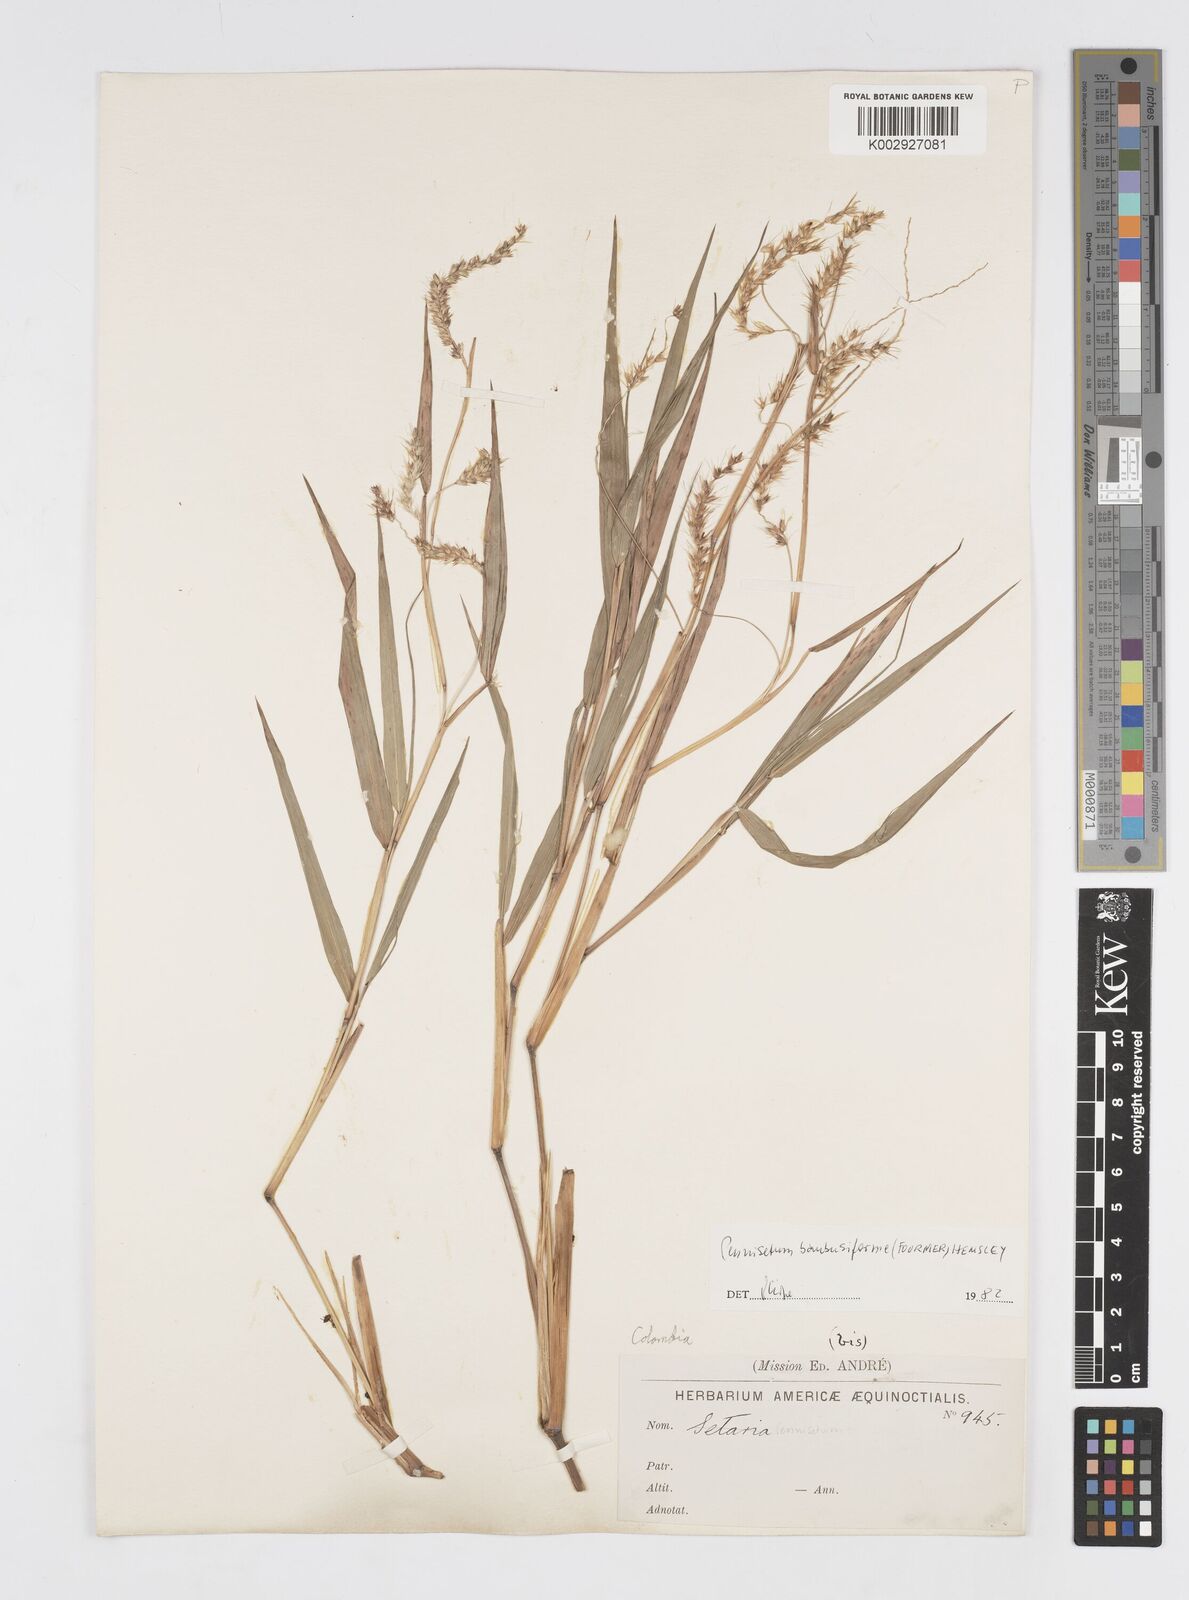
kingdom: Plantae
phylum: Tracheophyta
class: Liliopsida
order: Poales
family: Poaceae
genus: Cenchrus
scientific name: Cenchrus tristachyus
